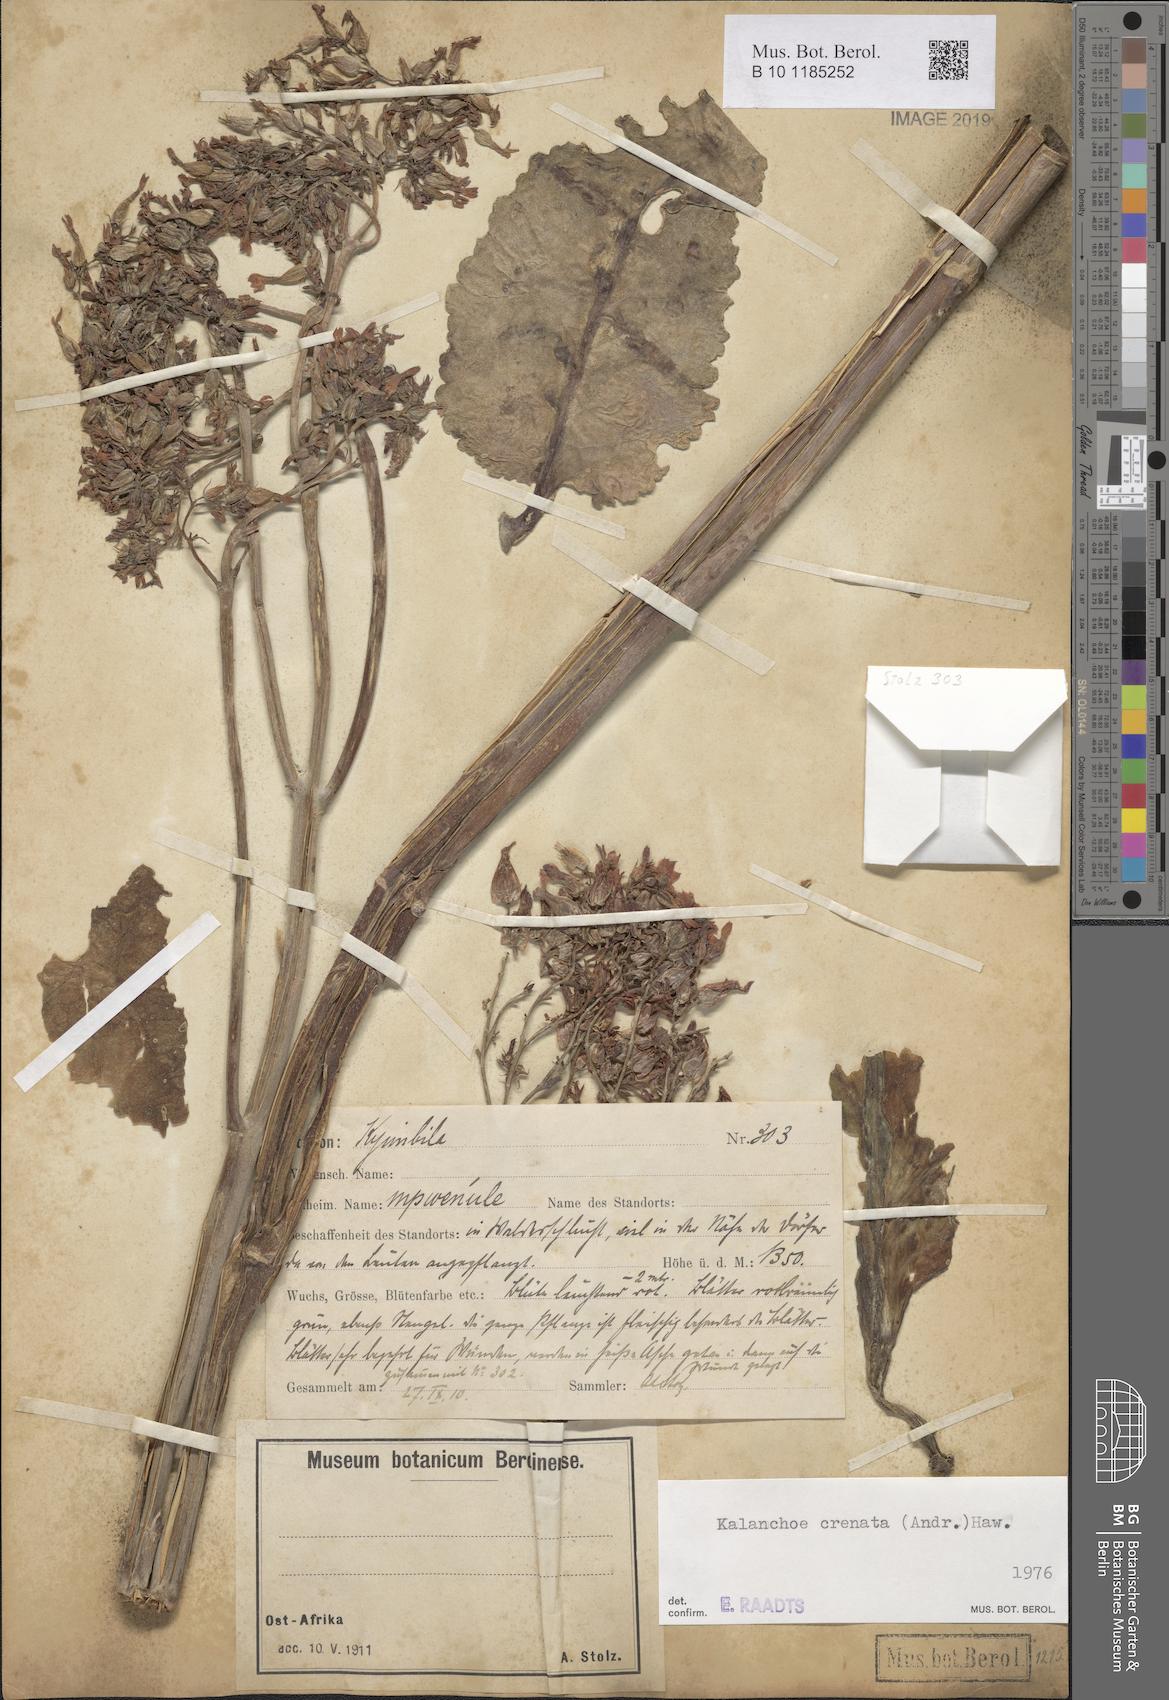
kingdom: Plantae
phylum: Tracheophyta
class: Magnoliopsida
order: Saxifragales
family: Crassulaceae
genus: Kalanchoe
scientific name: Kalanchoe crenata
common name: Neverdie
